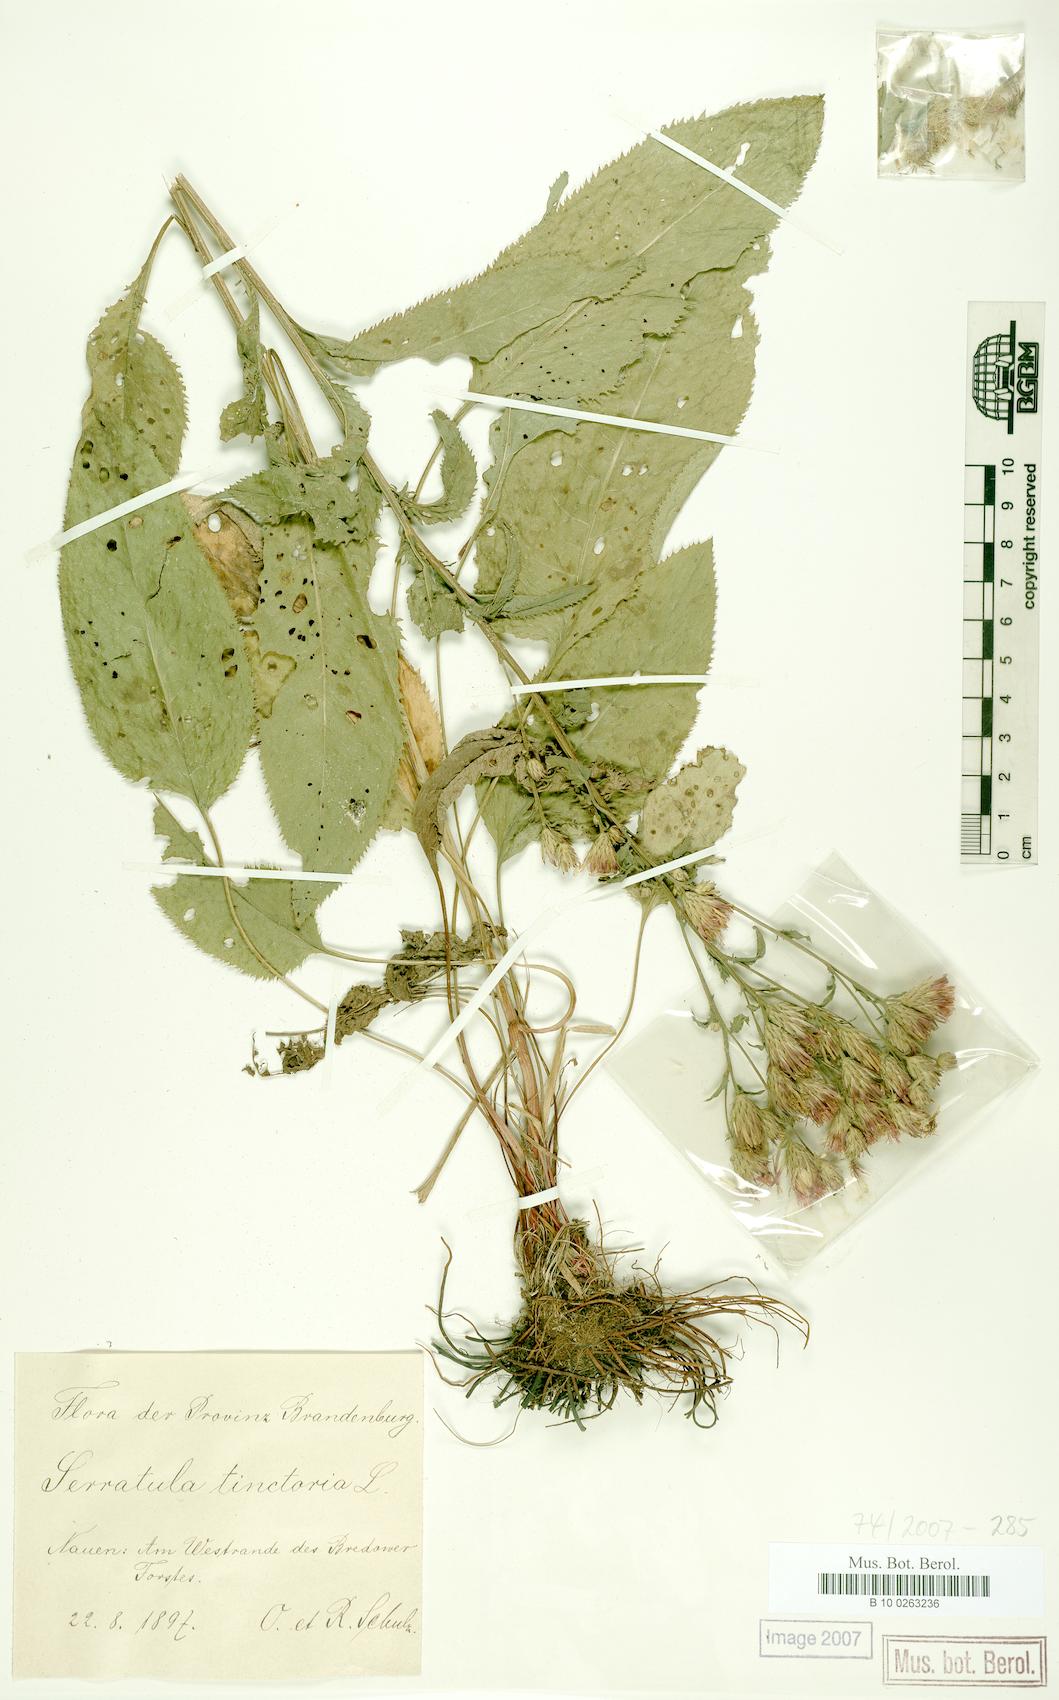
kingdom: Plantae
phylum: Tracheophyta
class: Magnoliopsida
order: Asterales
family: Asteraceae
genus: Serratula
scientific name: Serratula tinctoria
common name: Saw-wort
